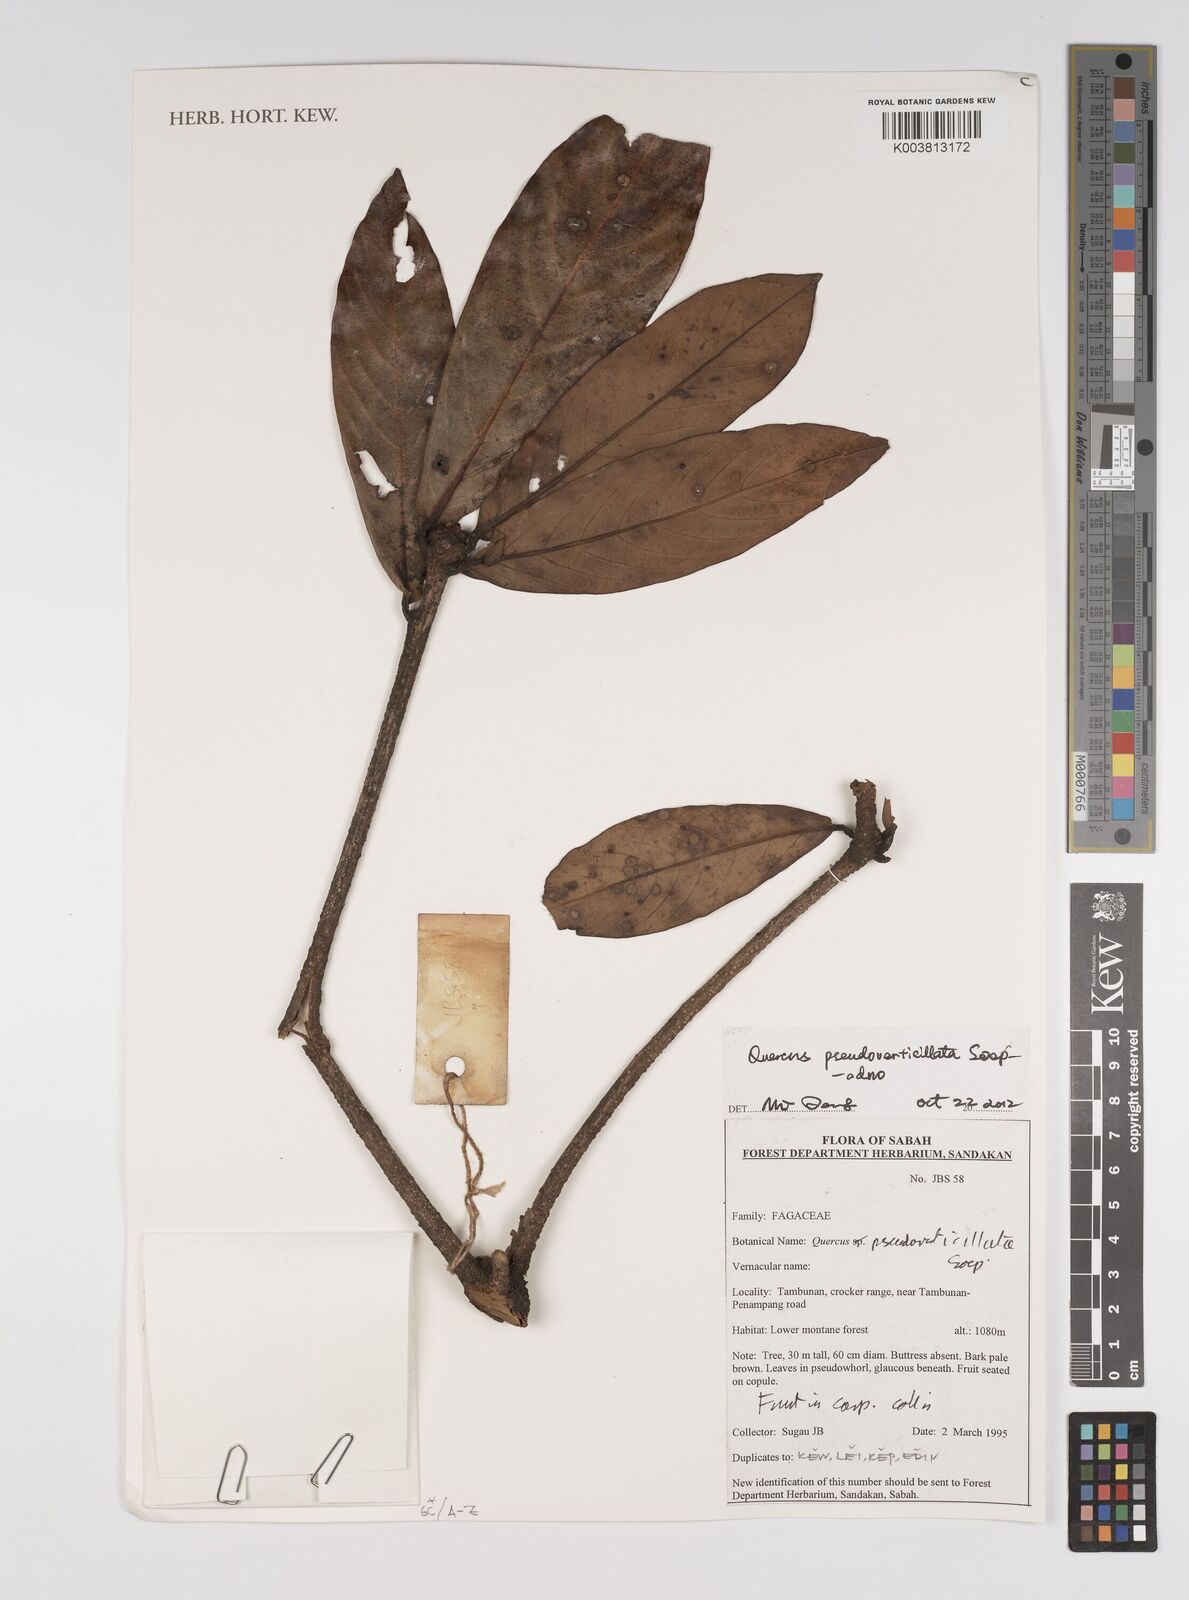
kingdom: Plantae
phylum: Tracheophyta
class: Magnoliopsida
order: Fagales
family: Fagaceae
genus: Quercus
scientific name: Quercus pseudoverticillata
